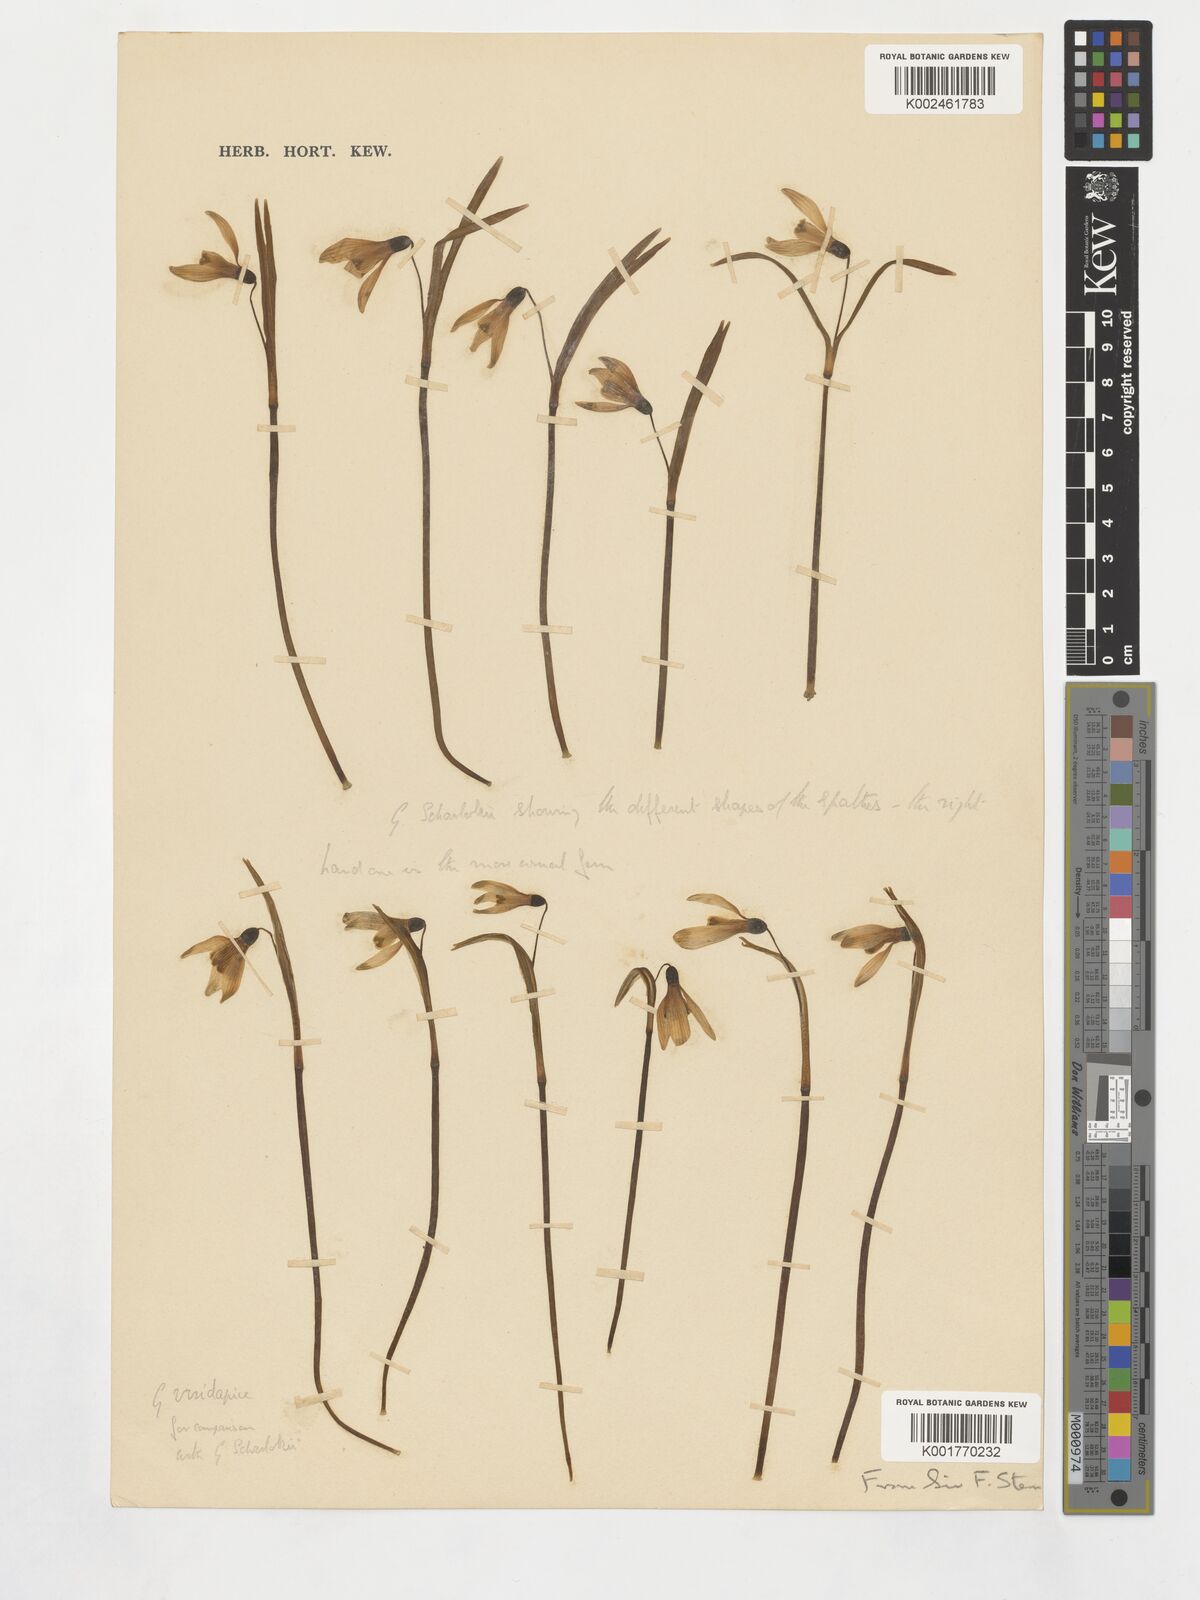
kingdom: Plantae
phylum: Tracheophyta
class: Liliopsida
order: Asparagales
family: Amaryllidaceae
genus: Galanthus
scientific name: Galanthus nivalis
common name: Snowdrop
